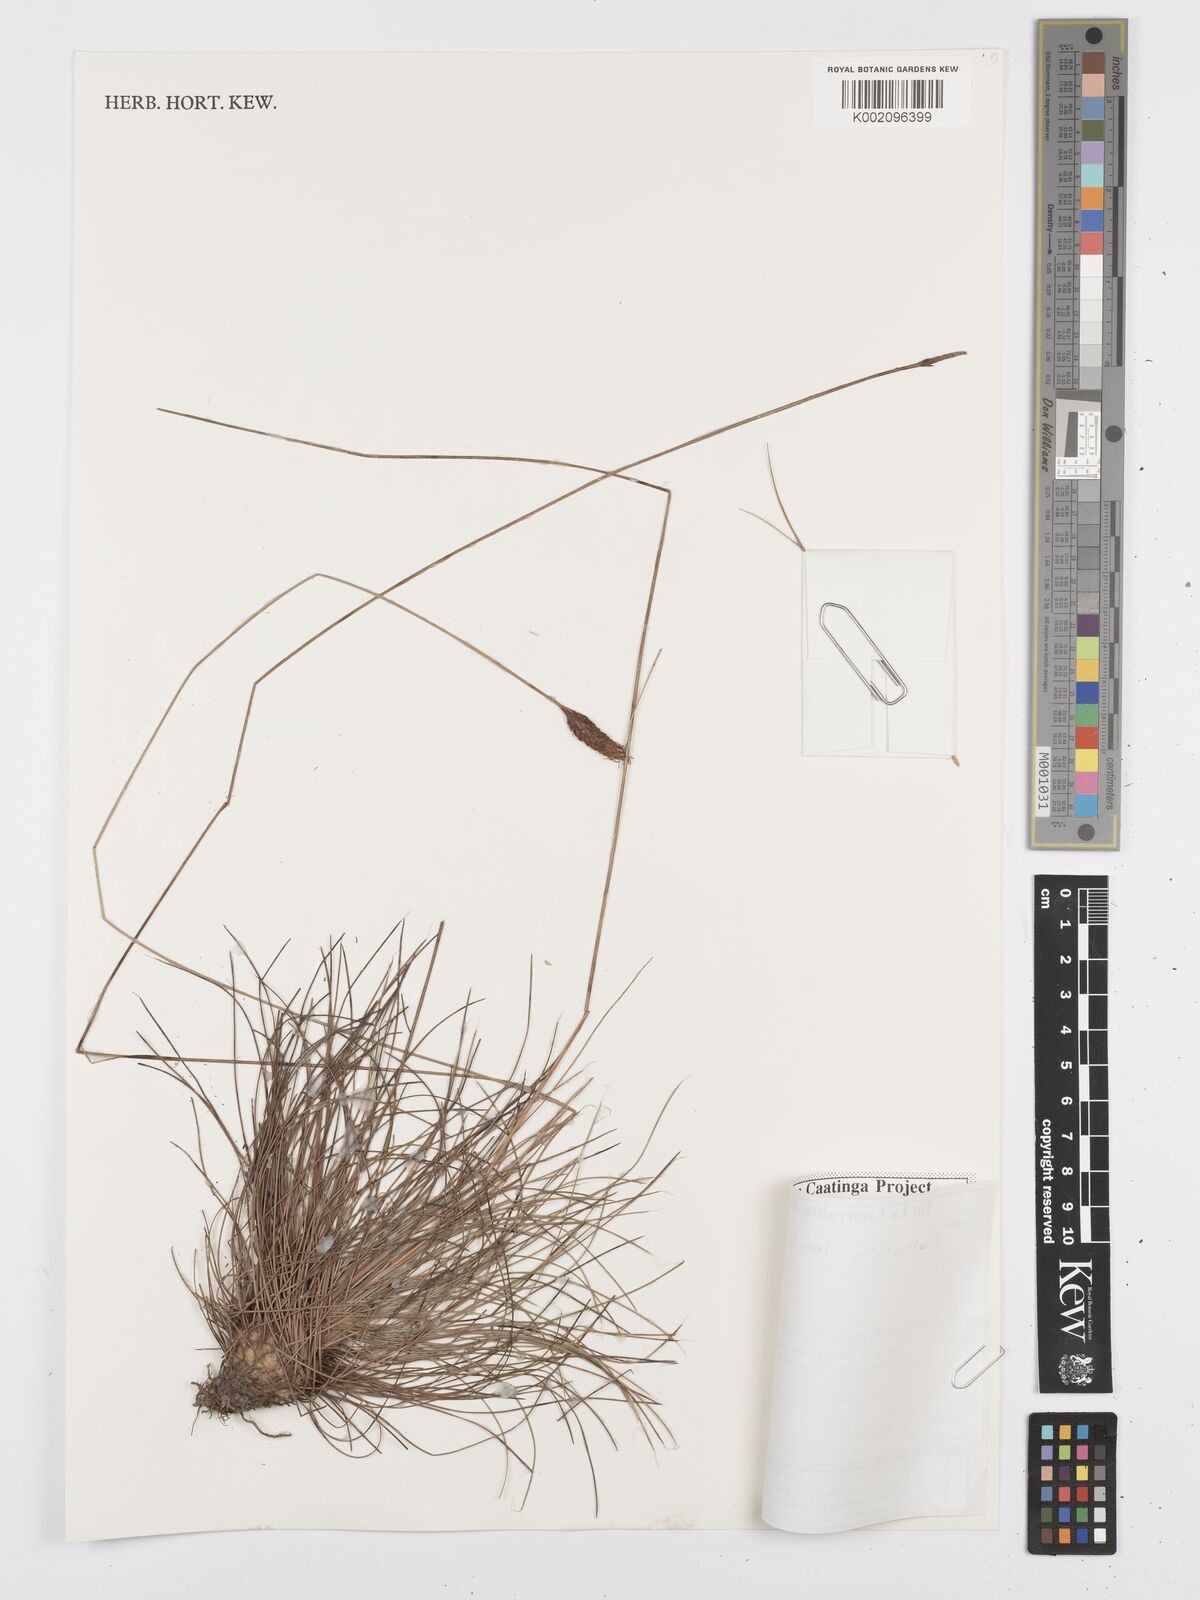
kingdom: Plantae
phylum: Tracheophyta
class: Liliopsida
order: Poales
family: Cyperaceae
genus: Bulbostylis
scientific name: Bulbostylis lanata
